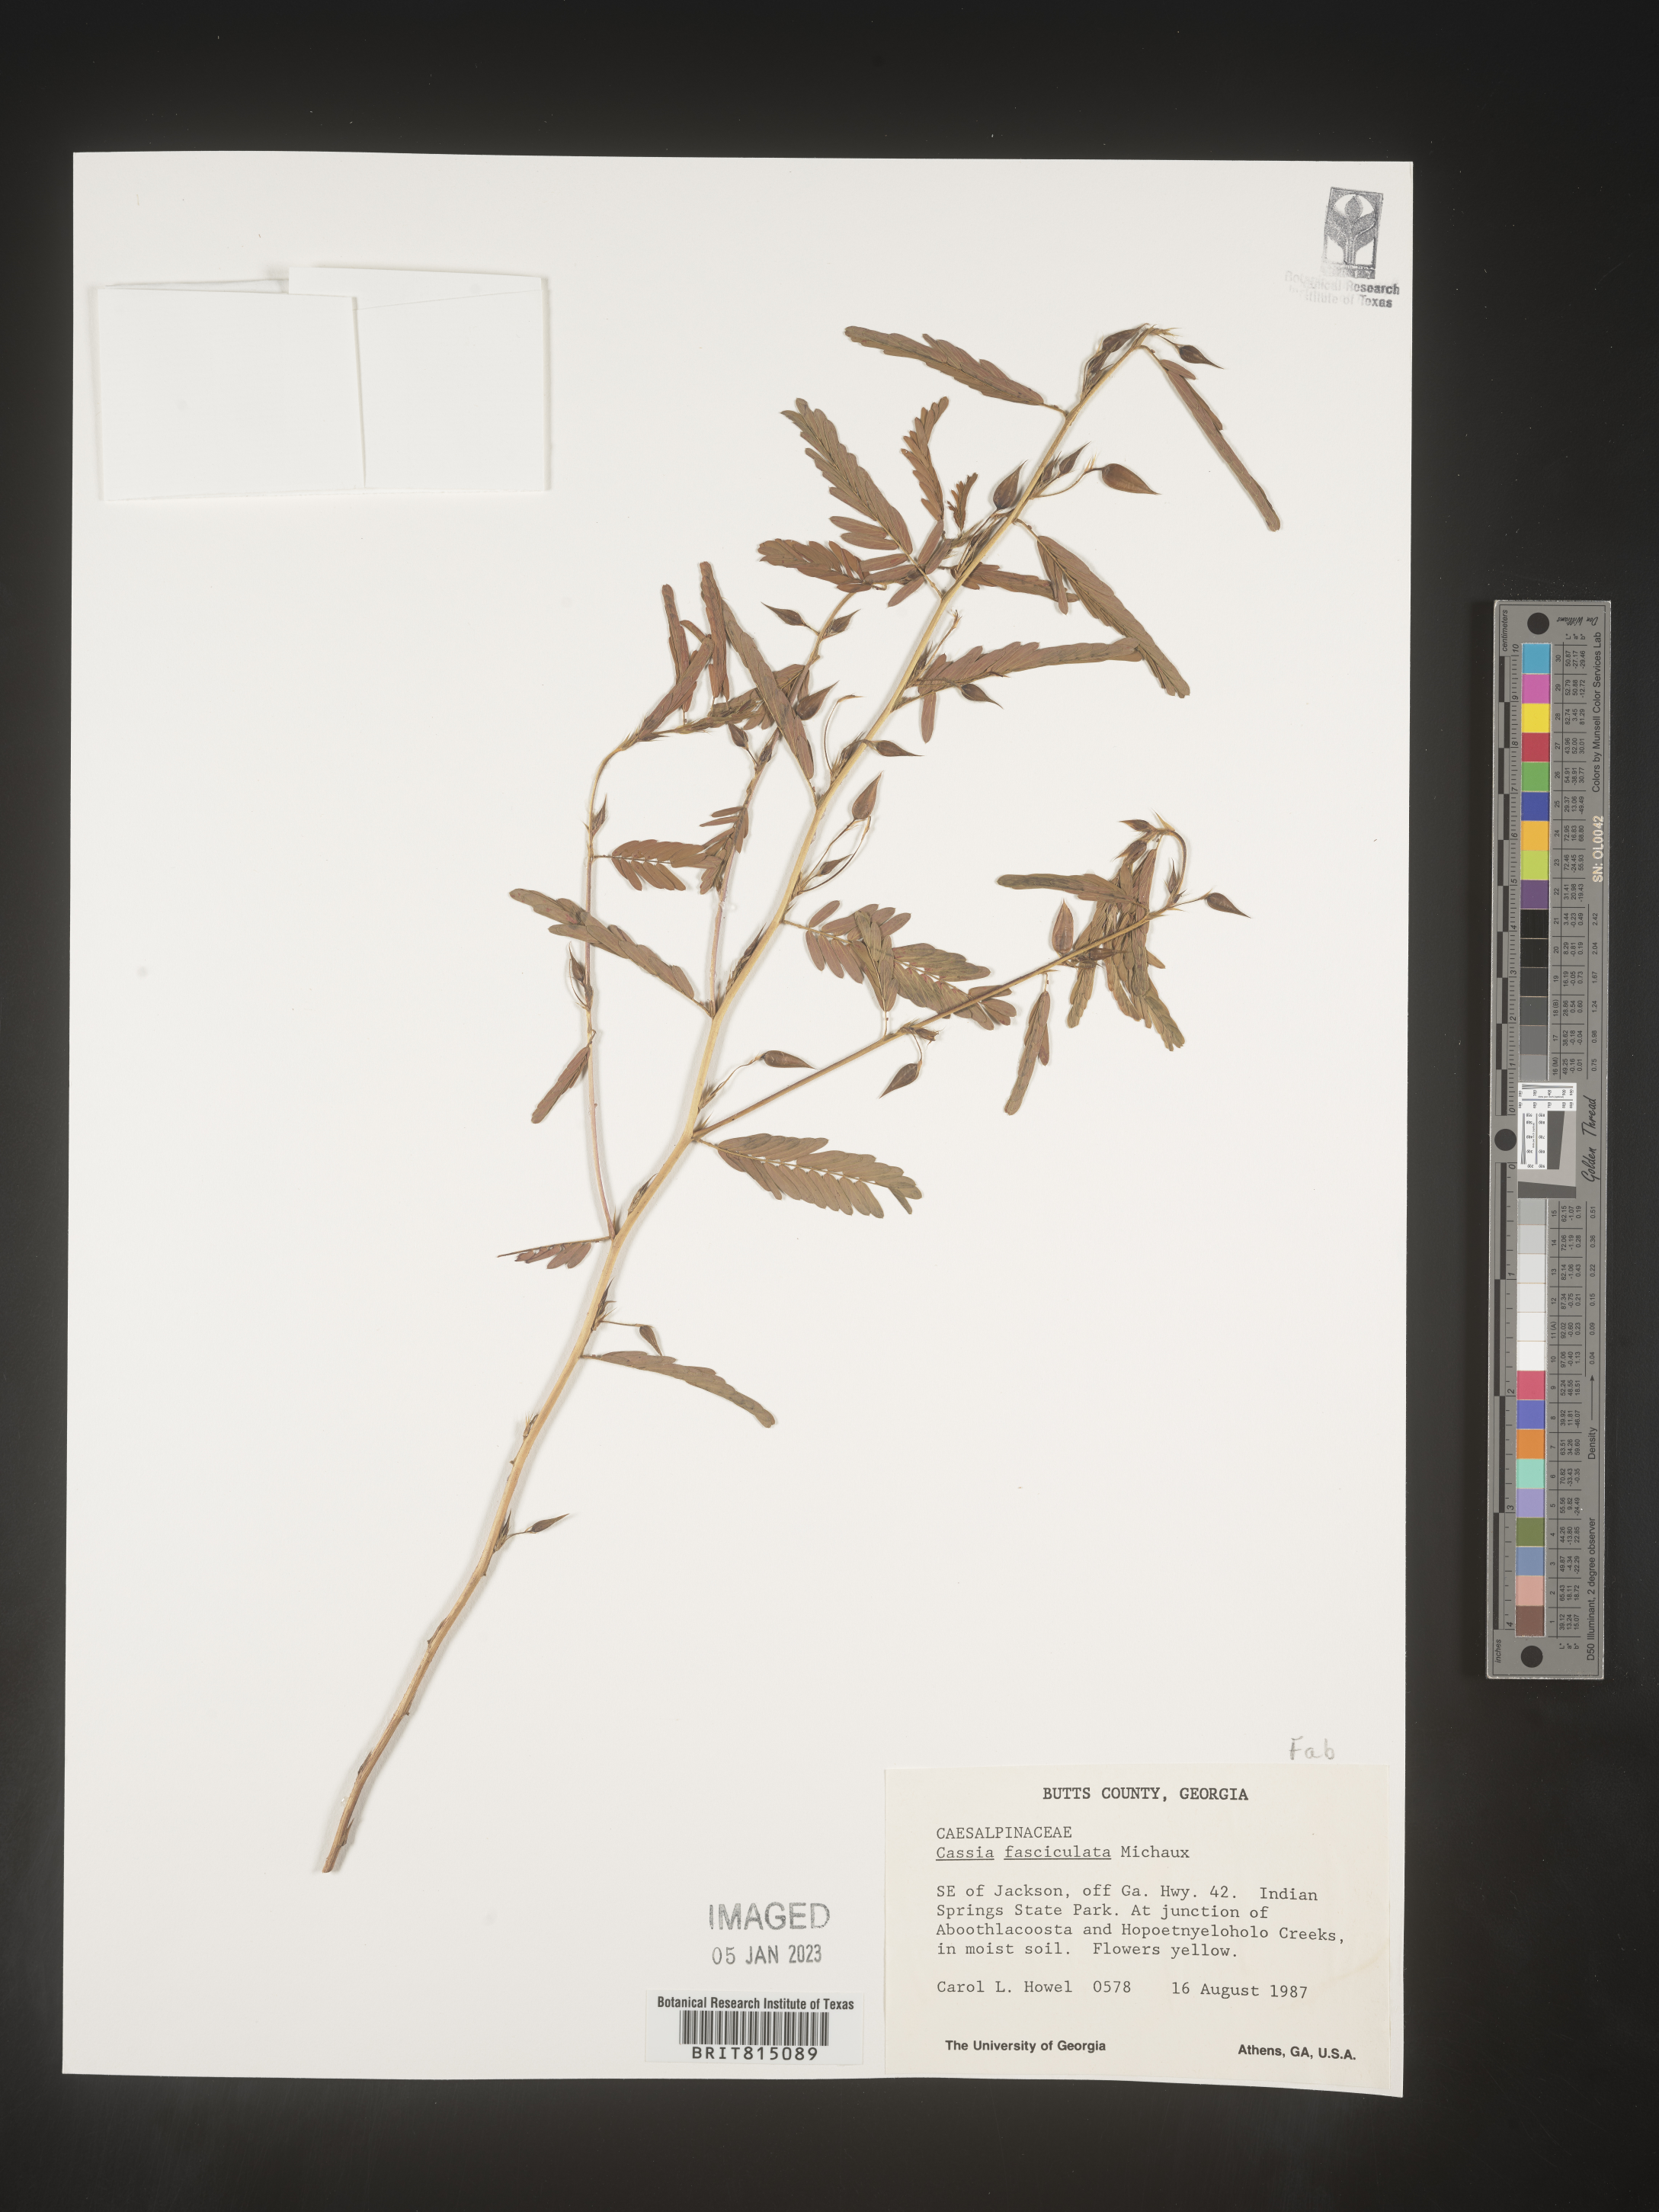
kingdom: Plantae
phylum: Tracheophyta
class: Magnoliopsida
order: Fabales
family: Fabaceae
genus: Chamaecrista
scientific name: Chamaecrista fasciculata
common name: Golden cassia
